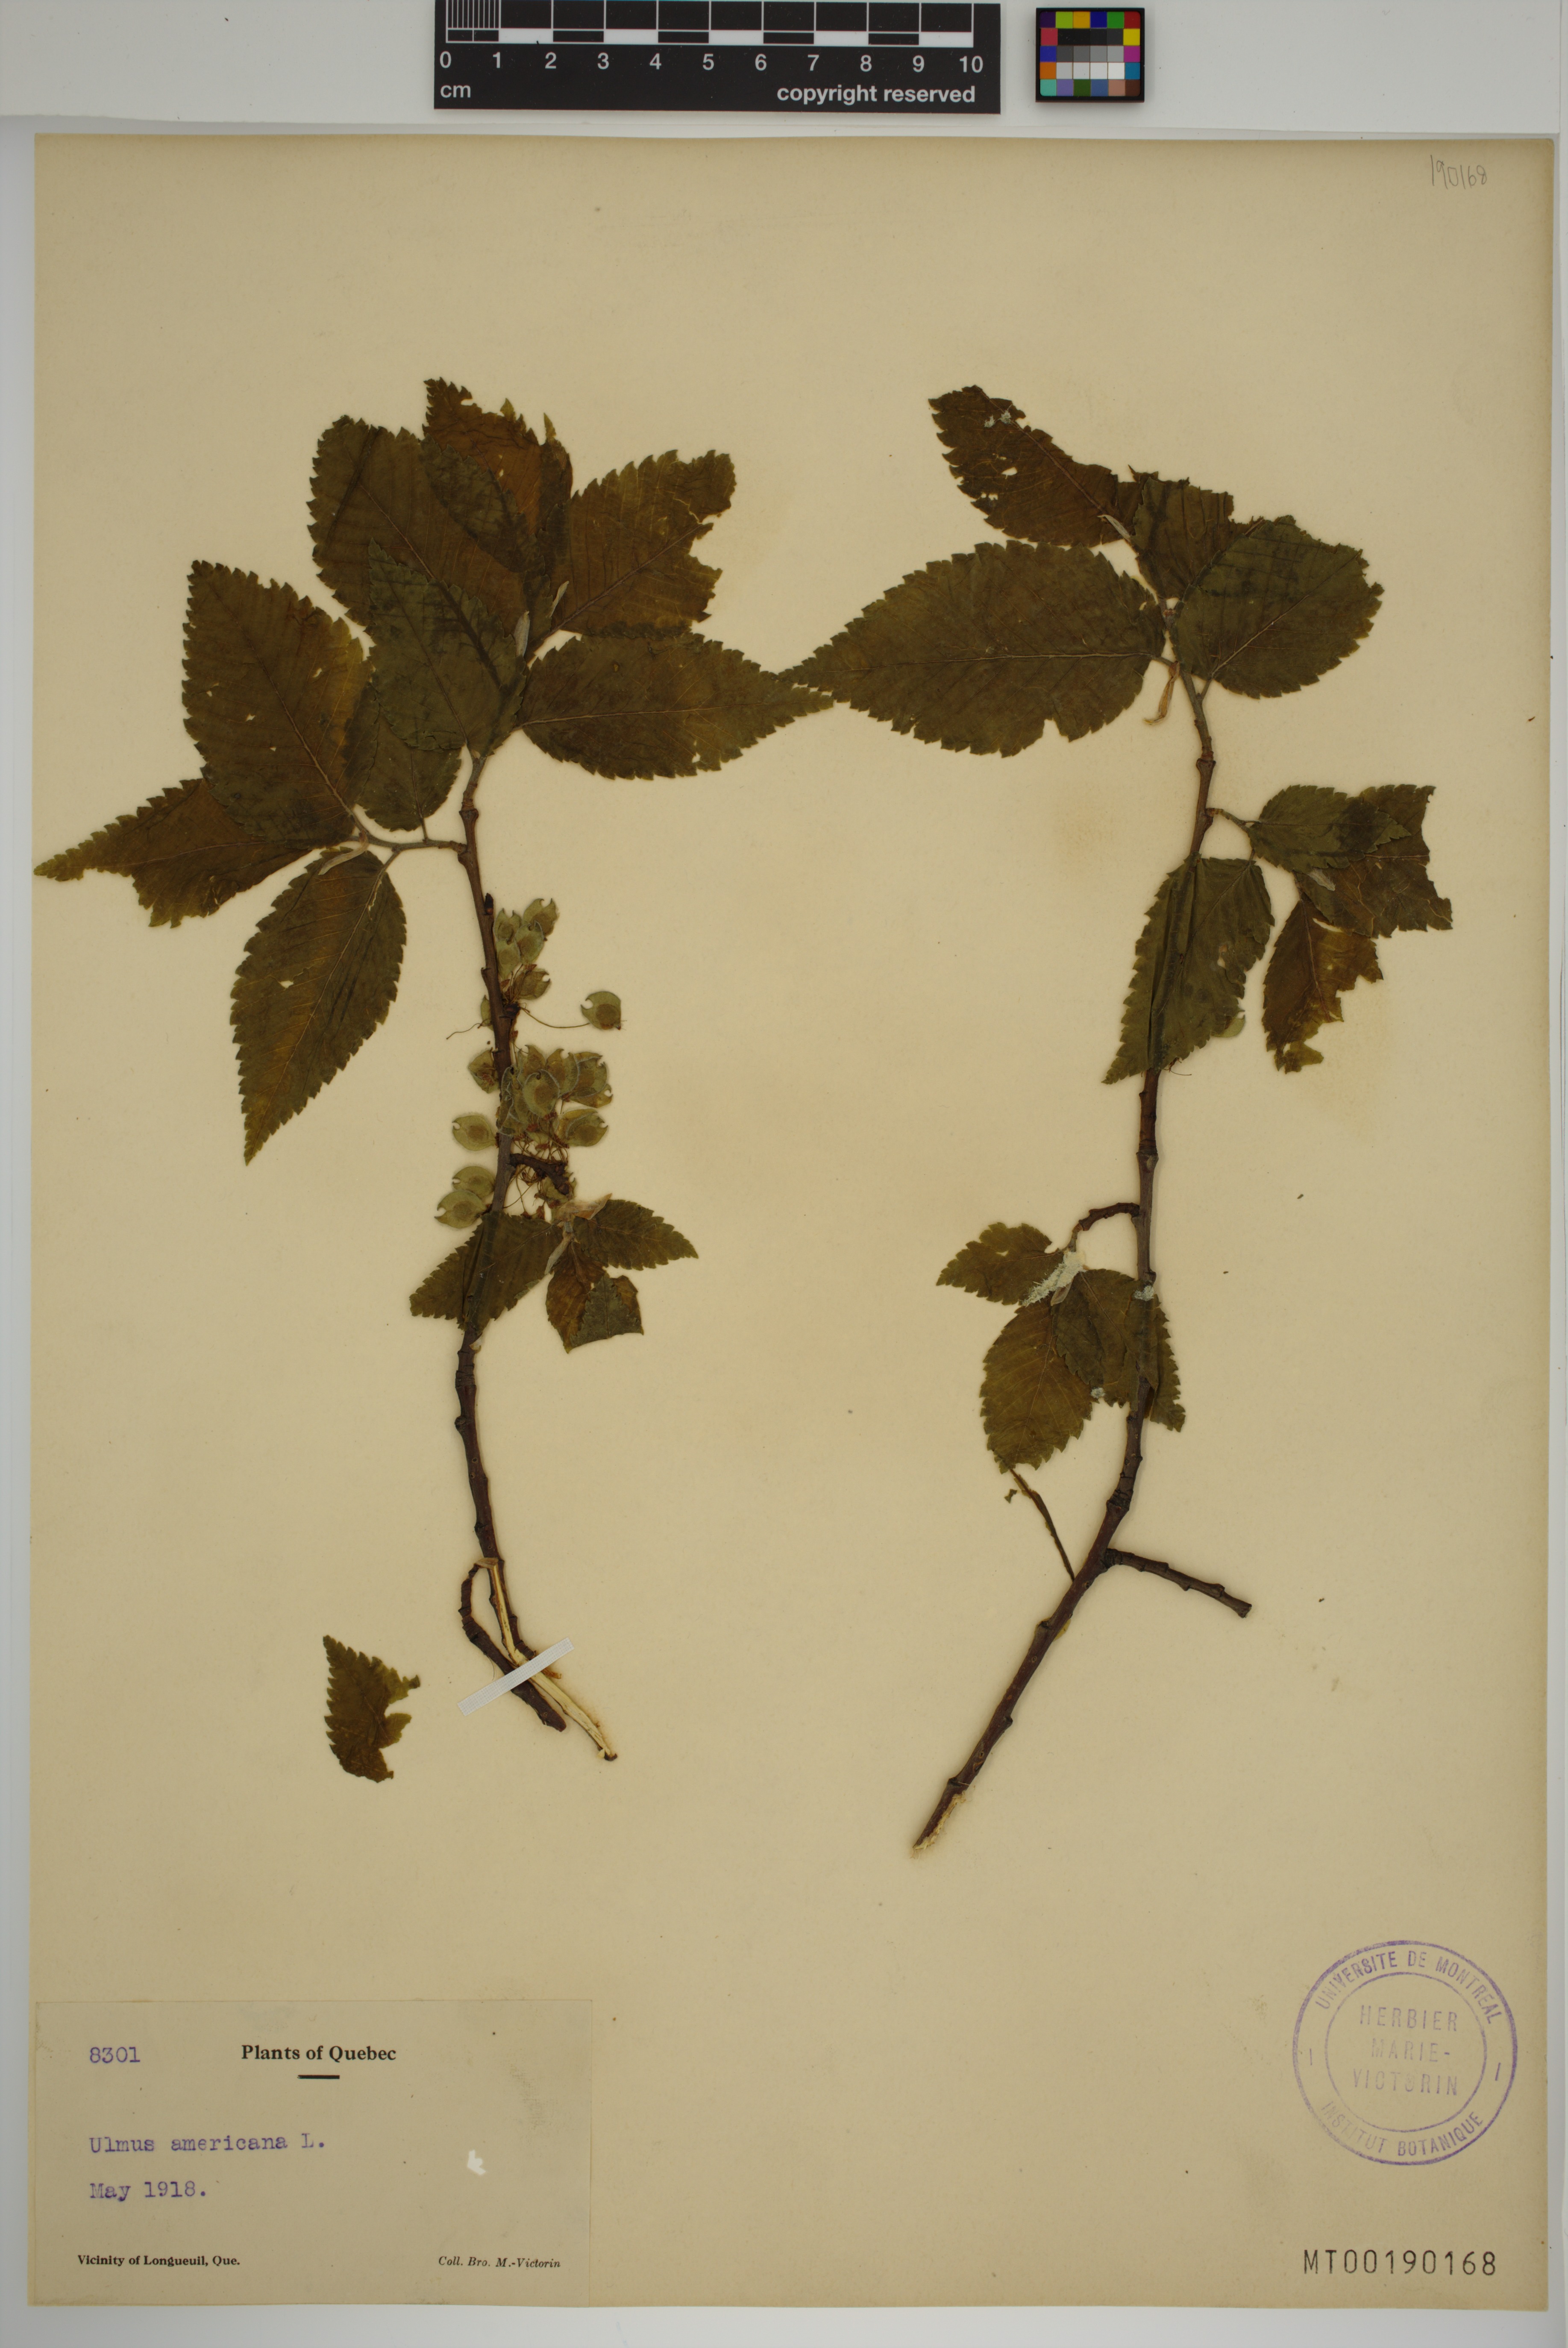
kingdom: Plantae
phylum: Tracheophyta
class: Magnoliopsida
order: Rosales
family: Ulmaceae
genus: Ulmus
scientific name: Ulmus americana
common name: American elm
